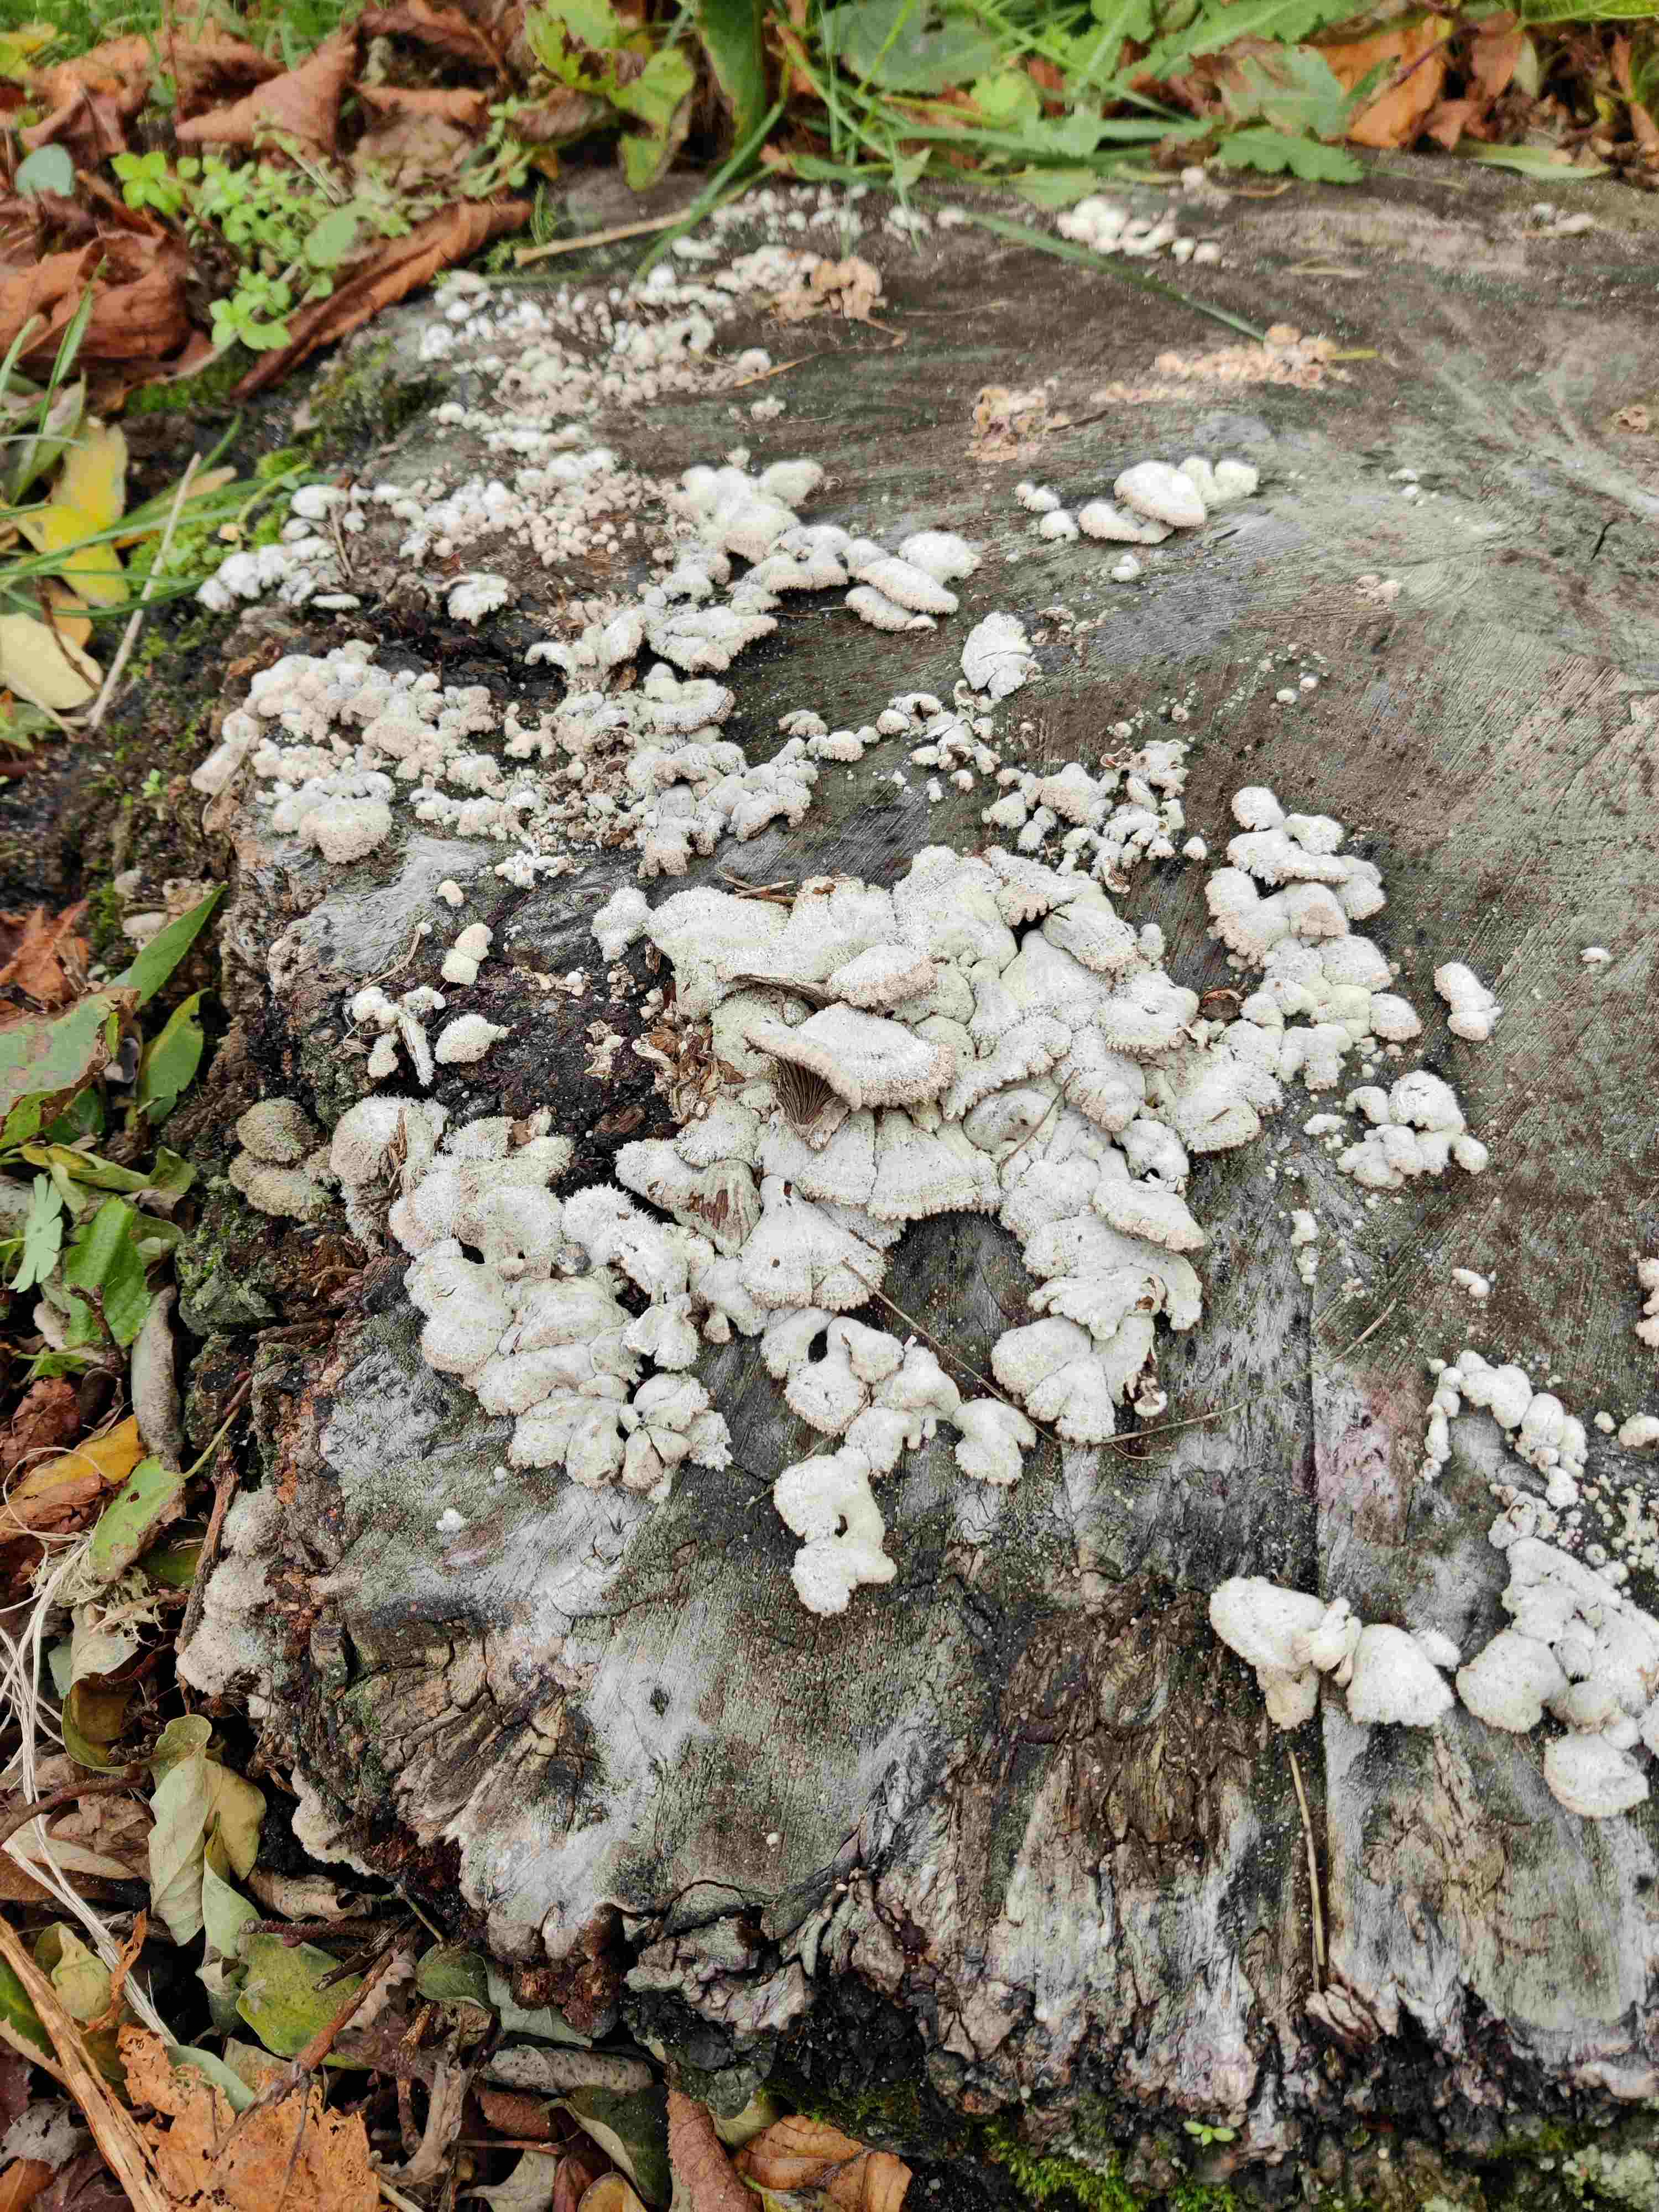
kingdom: Fungi
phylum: Basidiomycota
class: Agaricomycetes
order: Agaricales
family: Schizophyllaceae
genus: Schizophyllum
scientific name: Schizophyllum commune
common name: kløvblad
